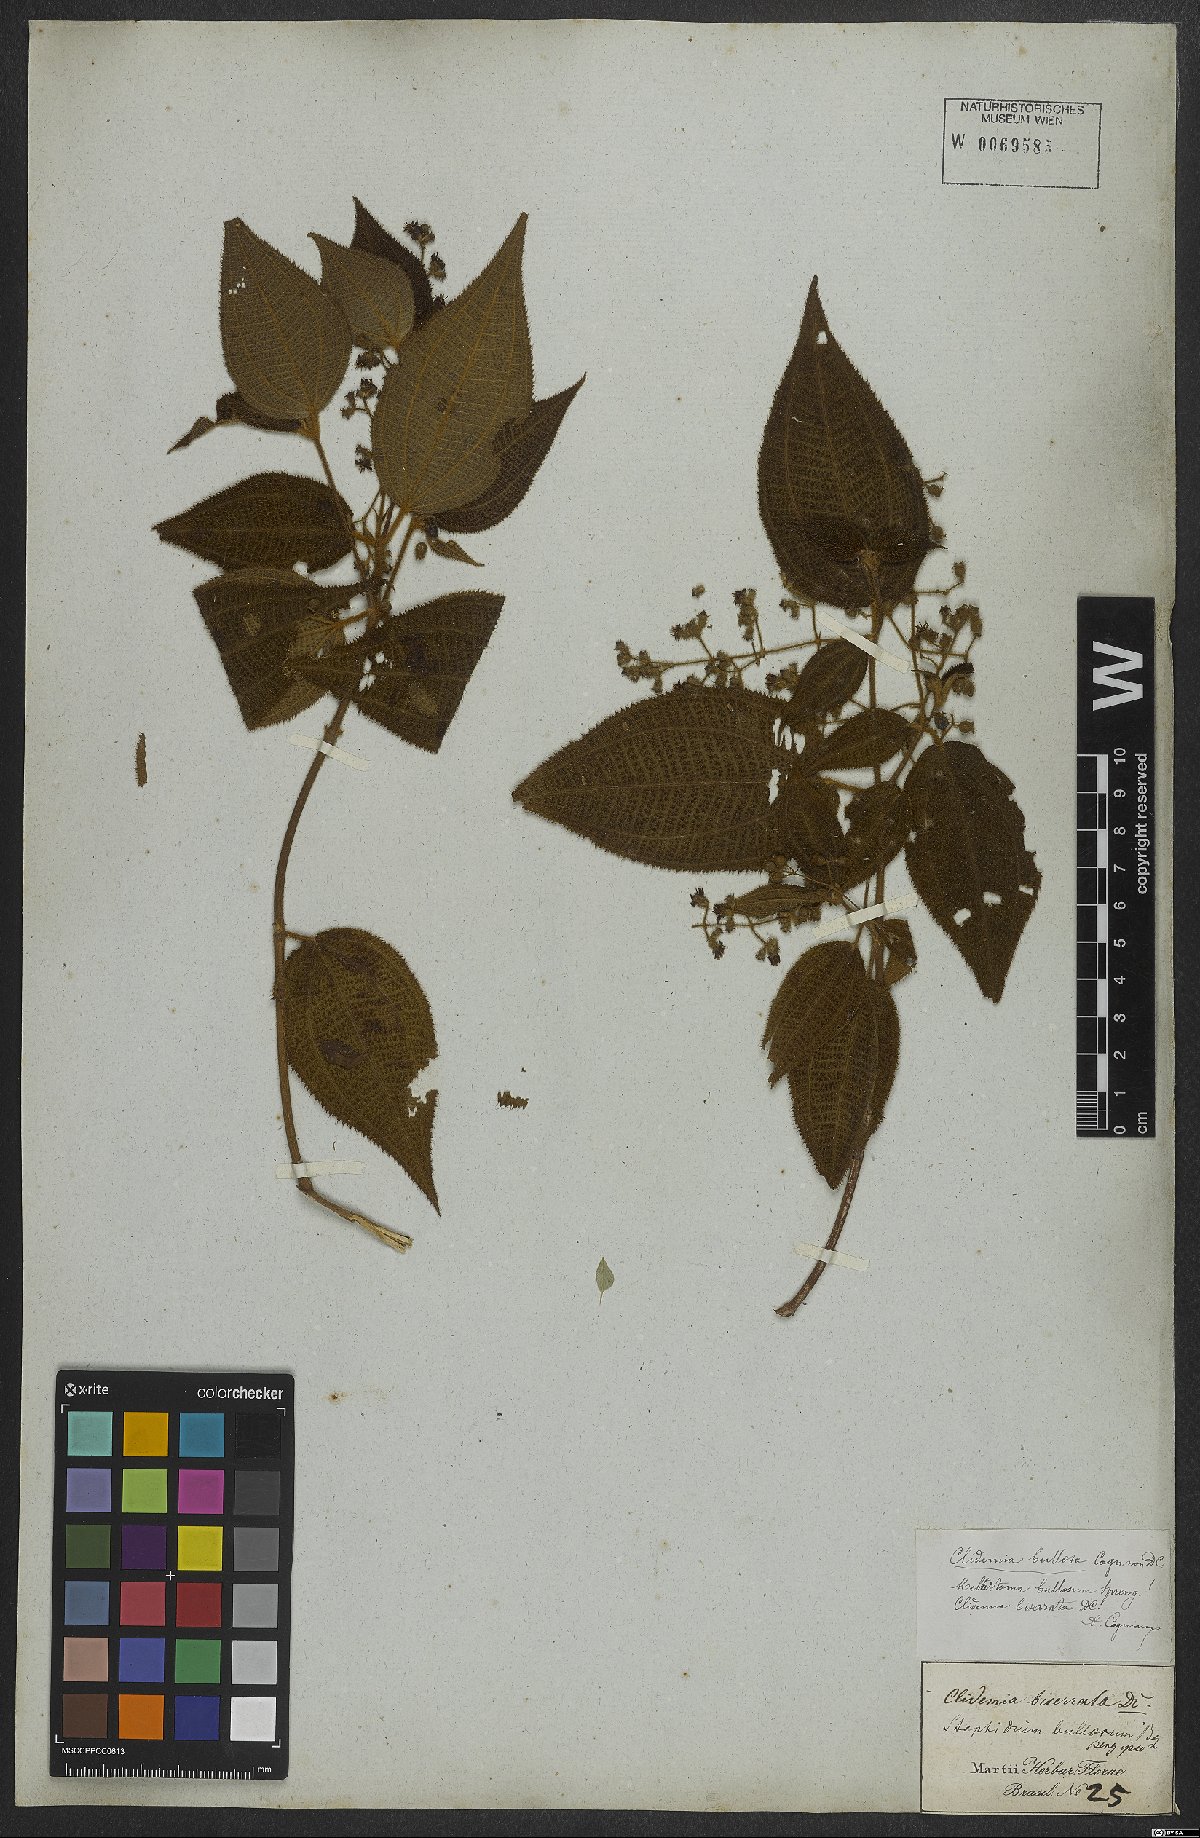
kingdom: Plantae
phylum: Tracheophyta
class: Magnoliopsida
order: Myrtales
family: Melastomataceae
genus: Miconia
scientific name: Miconia bullosa
